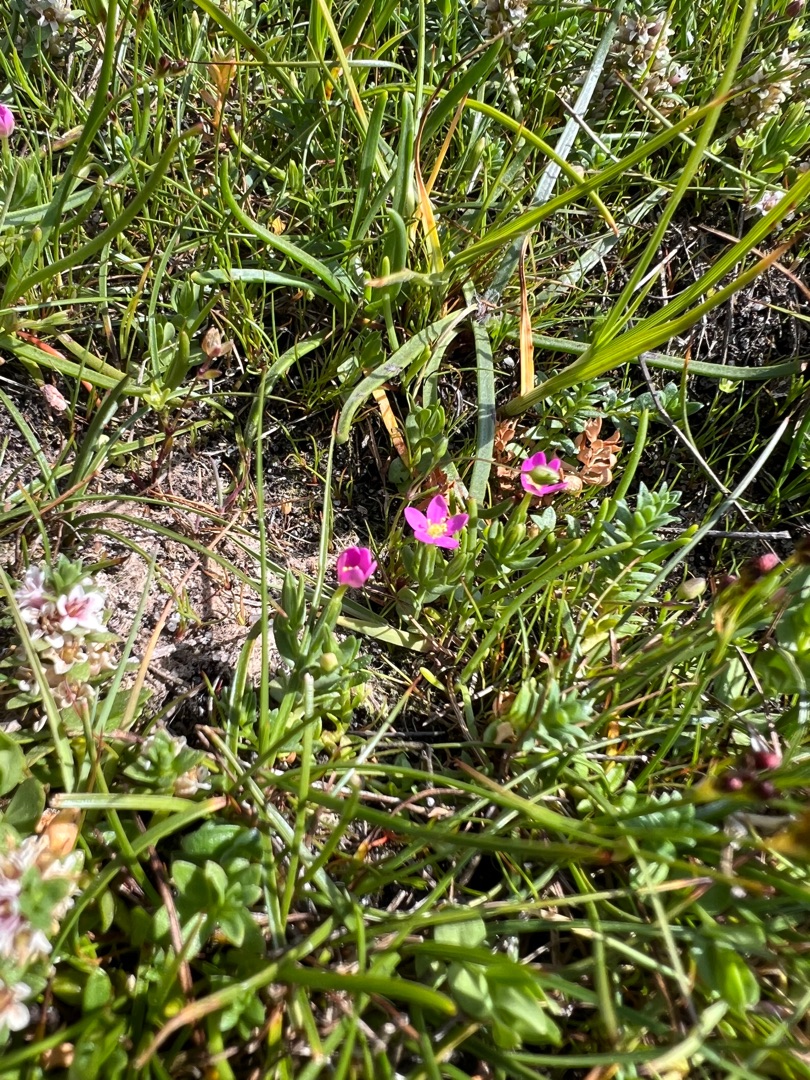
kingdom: Plantae
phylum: Tracheophyta
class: Magnoliopsida
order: Gentianales
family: Gentianaceae
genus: Centaurium
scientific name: Centaurium pulchellum
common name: Liden tusindgylden
